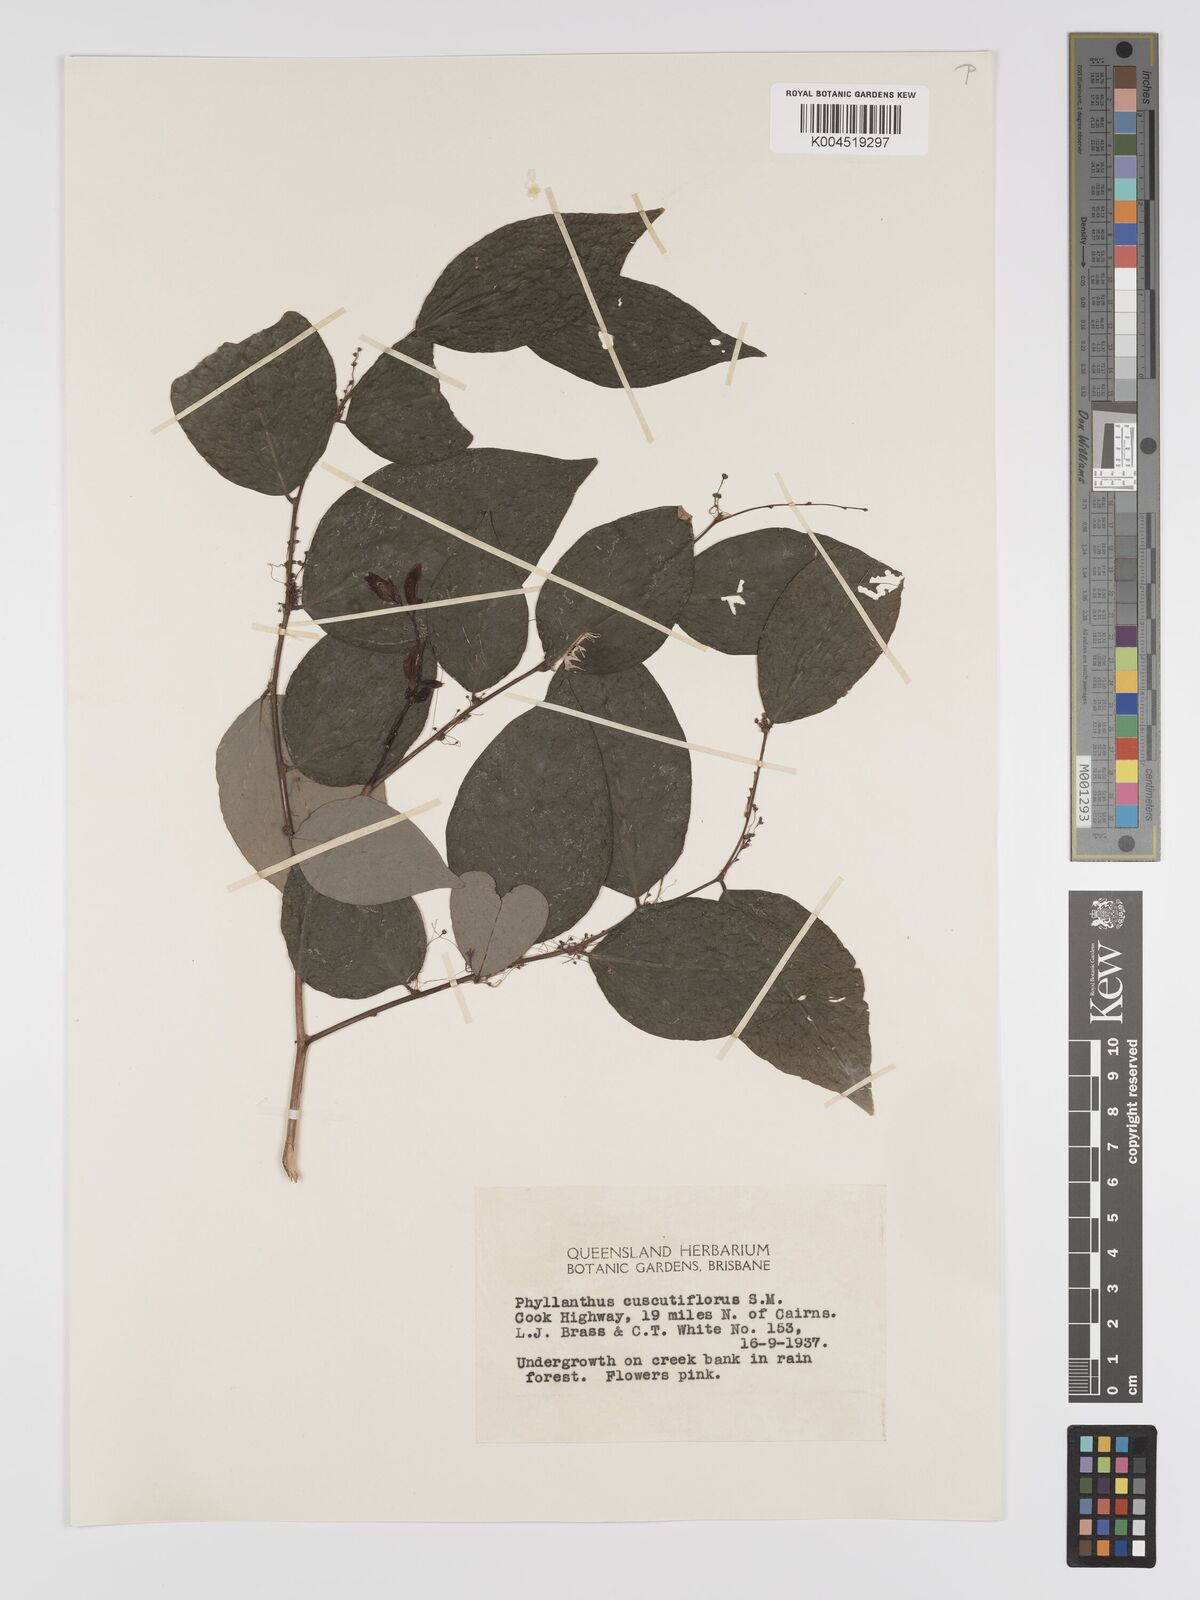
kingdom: Plantae
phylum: Tracheophyta
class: Magnoliopsida
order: Malpighiales
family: Phyllanthaceae
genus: Phyllanthus
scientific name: Phyllanthus cuscutiflorus
